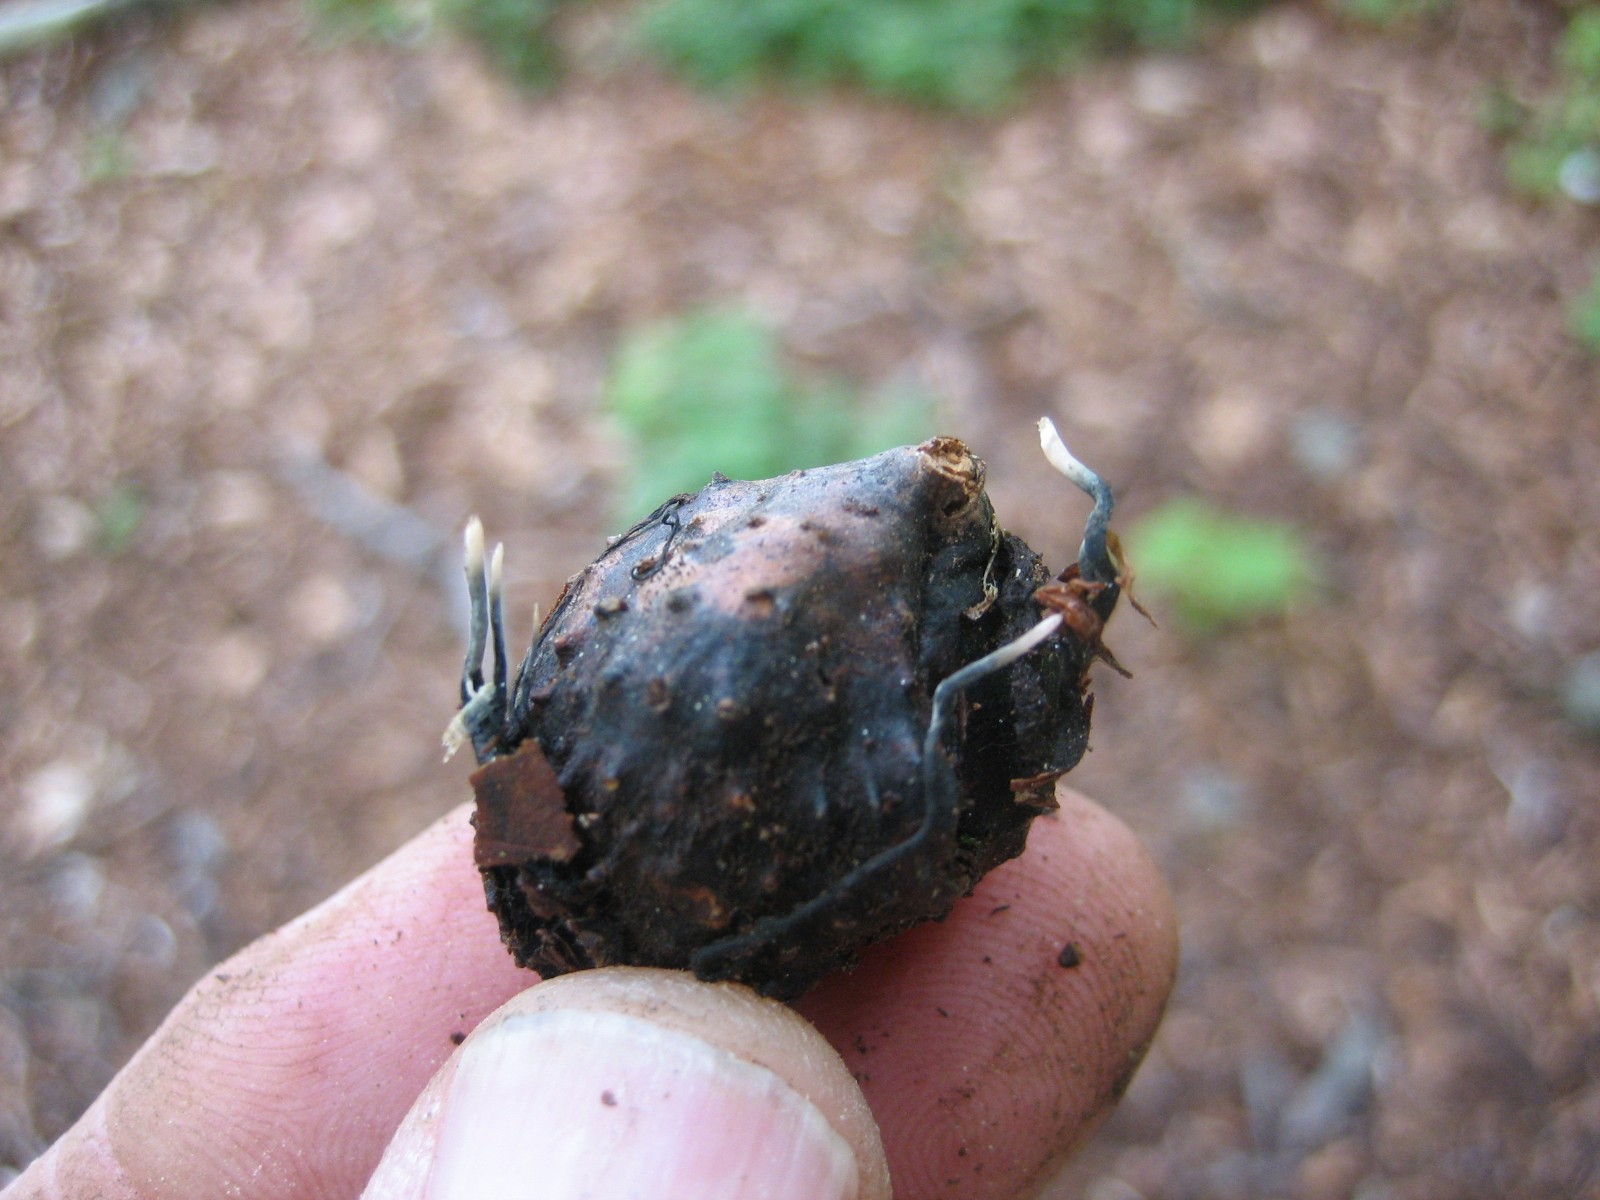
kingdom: Fungi
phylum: Ascomycota
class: Sordariomycetes
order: Xylariales
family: Xylariaceae
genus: Xylaria
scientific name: Xylaria carpophila
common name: bogskål-stødsvamp
